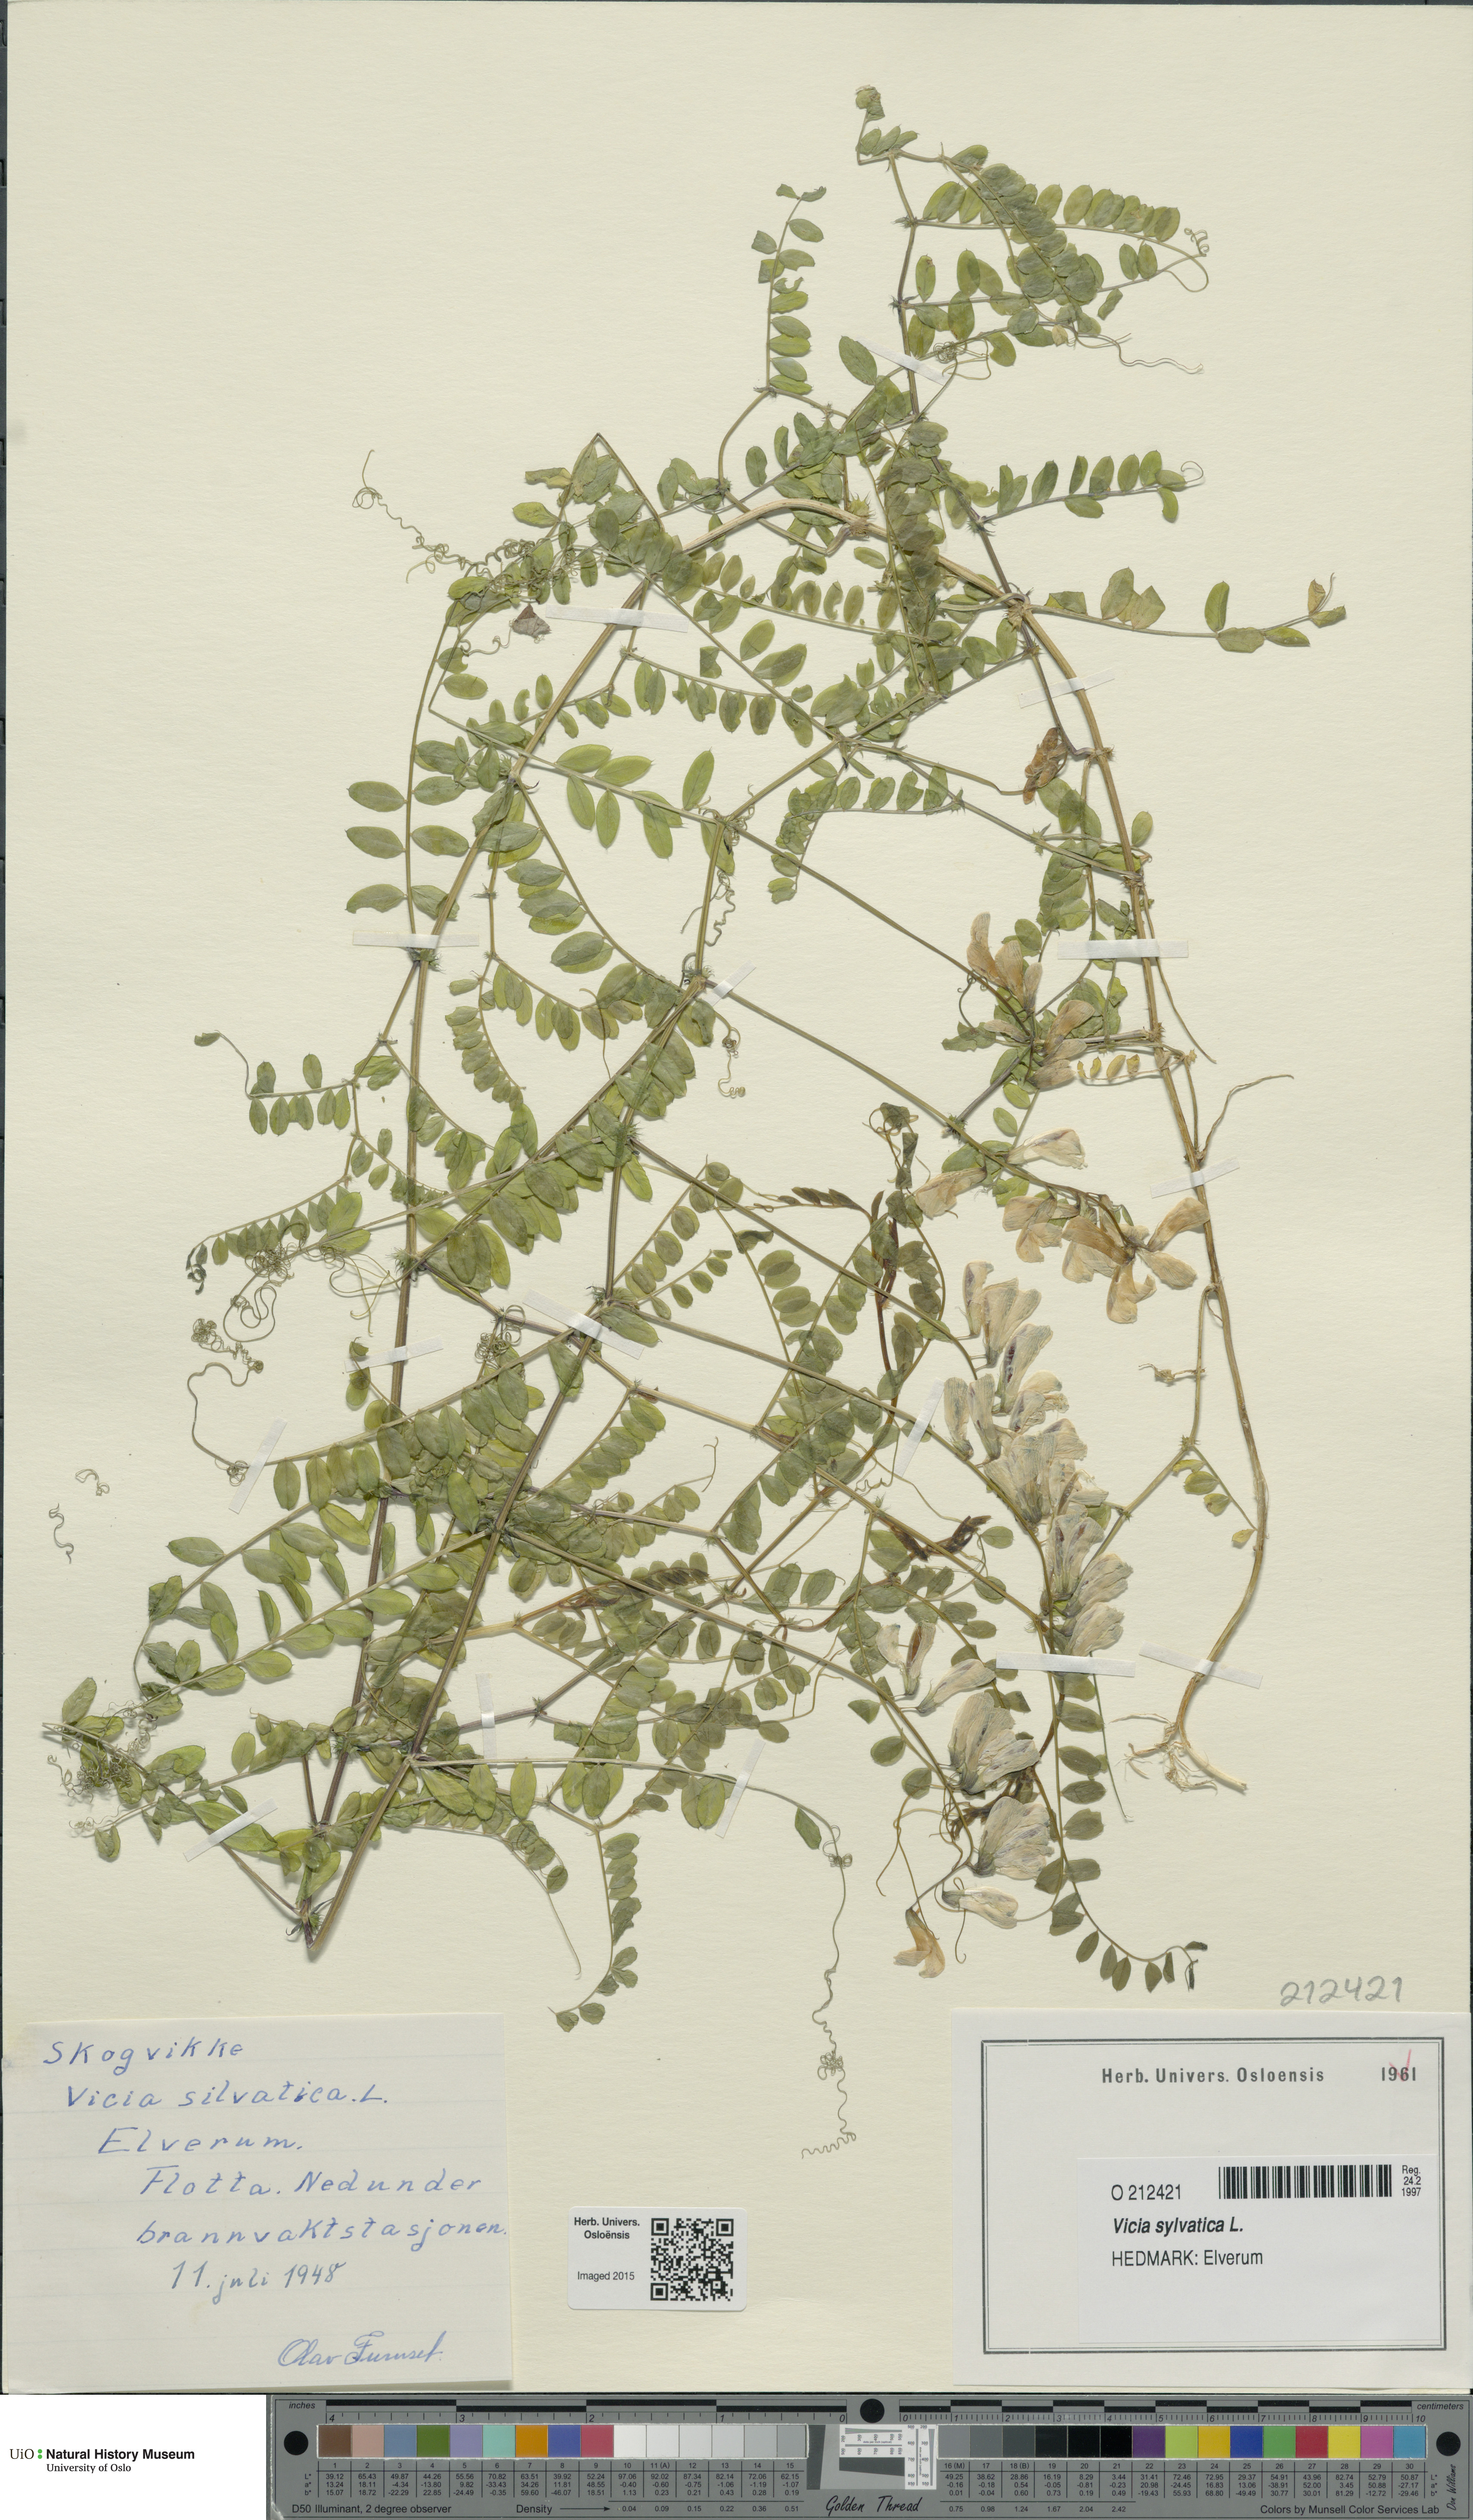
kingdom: Plantae
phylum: Tracheophyta
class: Magnoliopsida
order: Fabales
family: Fabaceae
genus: Vicia
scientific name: Vicia sylvatica
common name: Wood vetch
